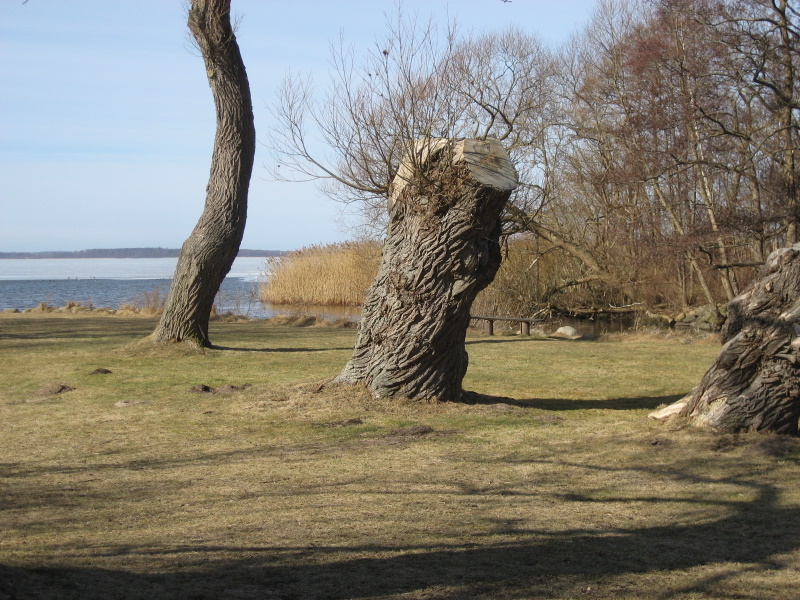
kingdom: Fungi
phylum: Basidiomycota
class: Agaricomycetes
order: Agaricales
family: Physalacriaceae
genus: Flammulina
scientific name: Flammulina velutipes
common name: gul fløjlsfod
